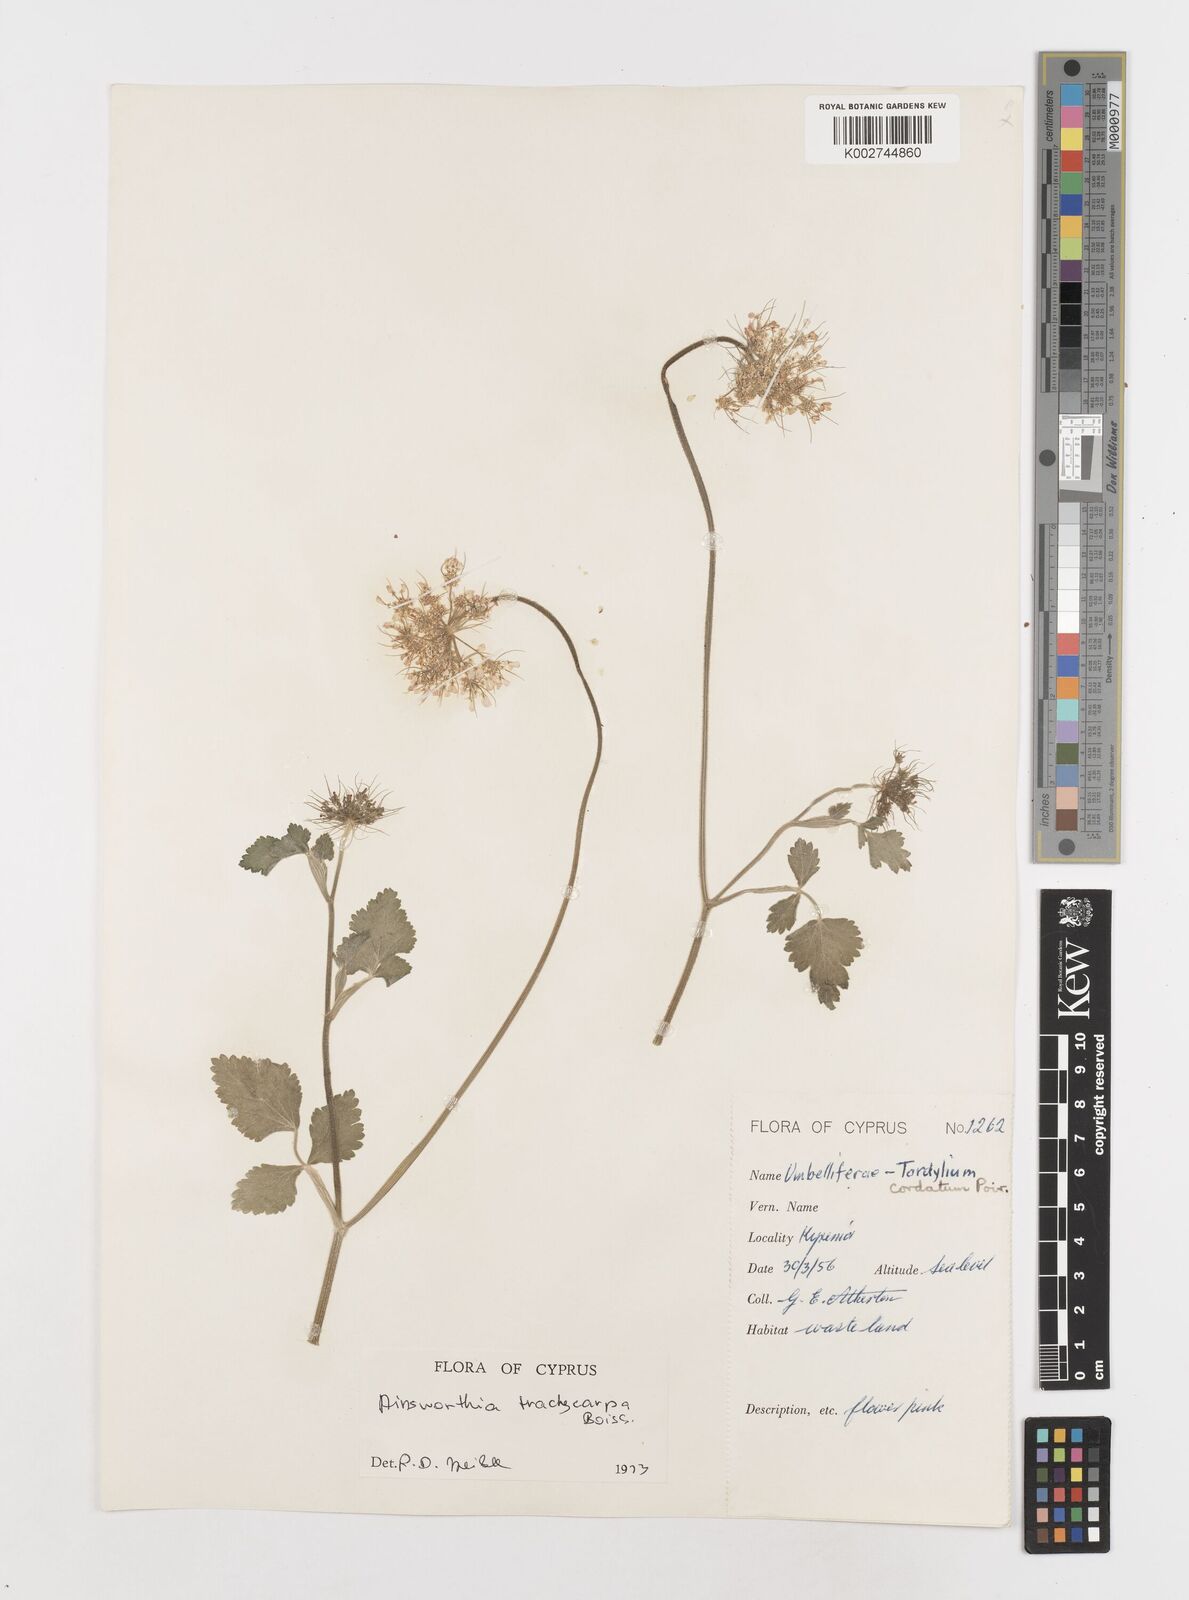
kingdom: Plantae
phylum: Tracheophyta
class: Magnoliopsida
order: Apiales
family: Apiaceae
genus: Ainsworthia
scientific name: Ainsworthia cordata
